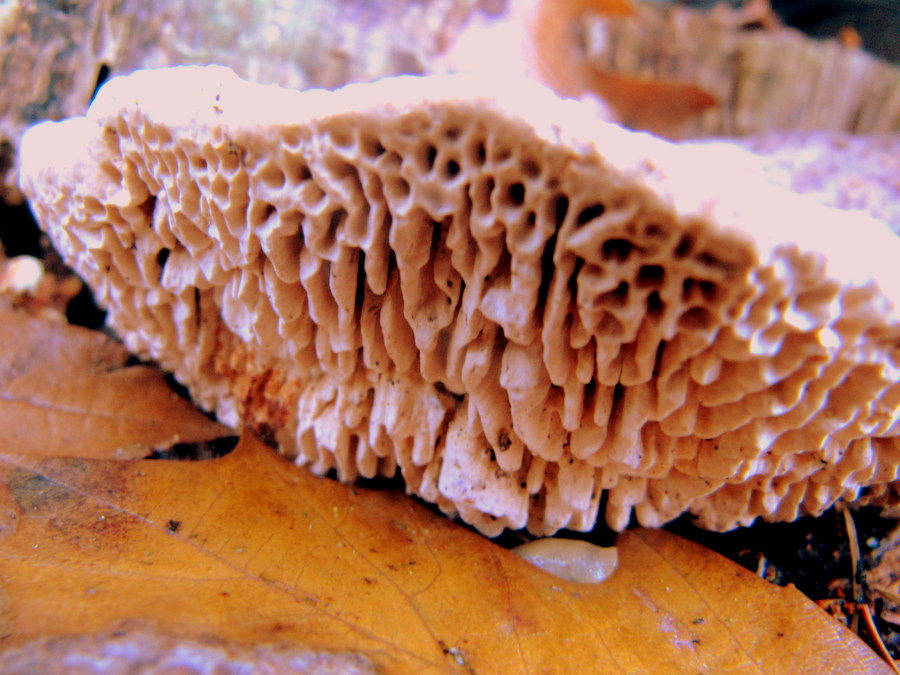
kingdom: Fungi
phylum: Basidiomycota
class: Agaricomycetes
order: Polyporales
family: Fomitopsidaceae
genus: Daedalea
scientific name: Daedalea quercina
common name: ege-labyrintsvamp
